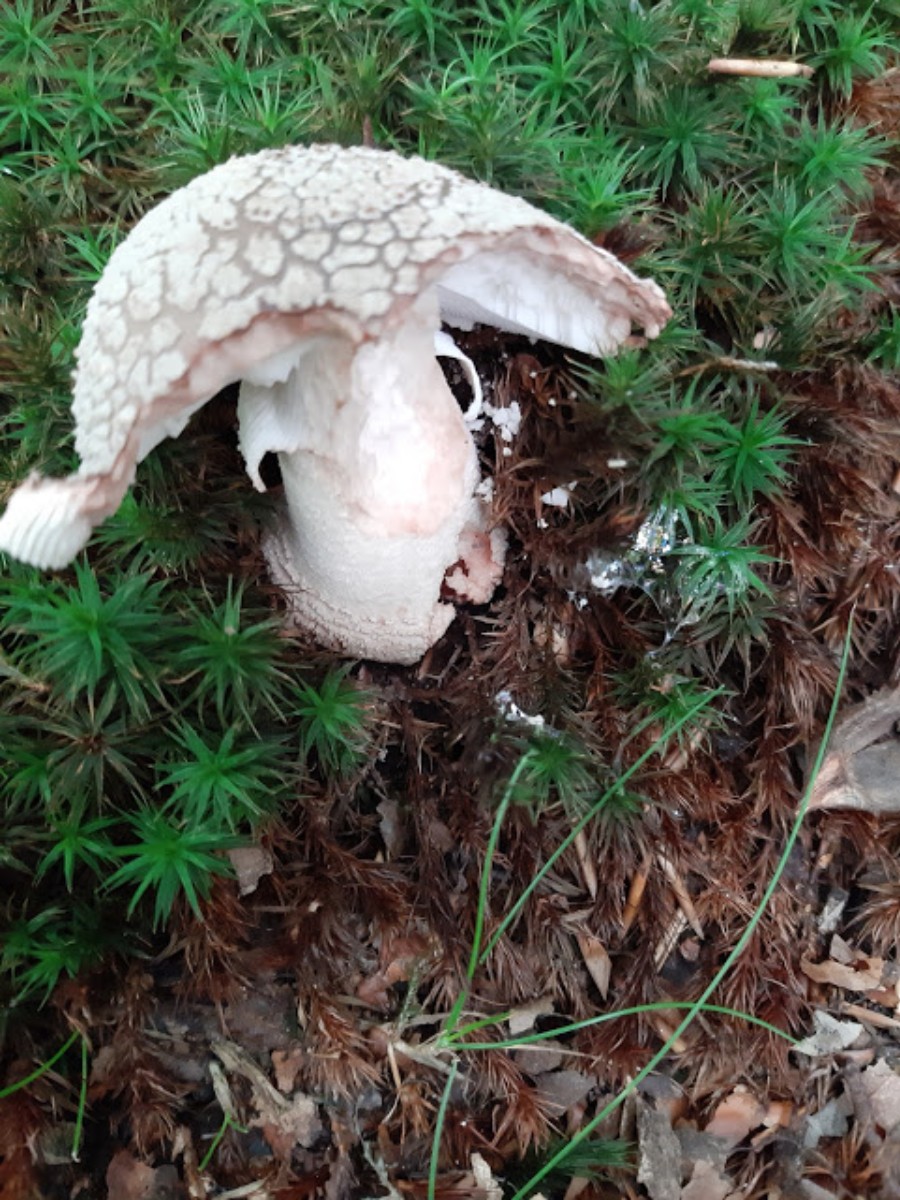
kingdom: Fungi
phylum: Basidiomycota
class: Agaricomycetes
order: Agaricales
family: Amanitaceae
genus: Amanita
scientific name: Amanita rubescens
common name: rødmende fluesvamp
